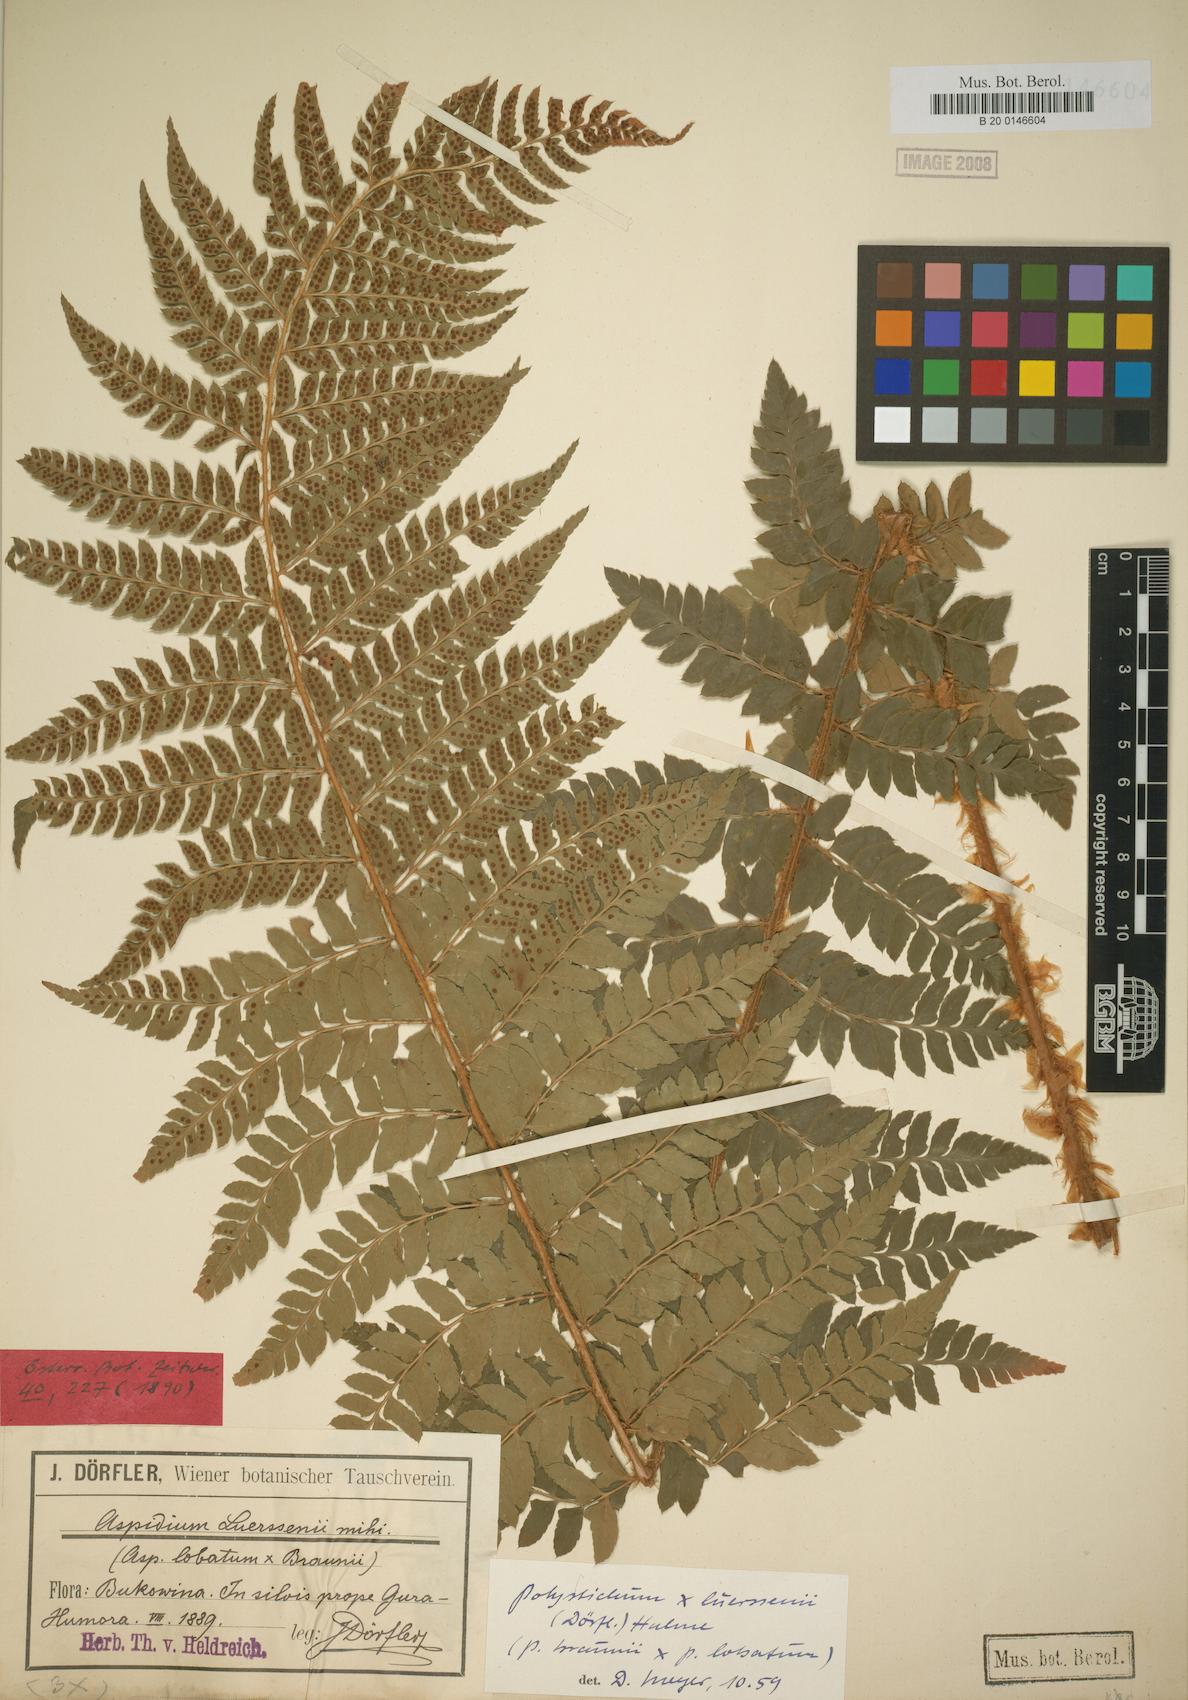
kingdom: Plantae
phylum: Tracheophyta
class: Polypodiopsida
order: Polypodiales
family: Dryopteridaceae
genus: Polystichum
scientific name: Polystichum luerssenii
